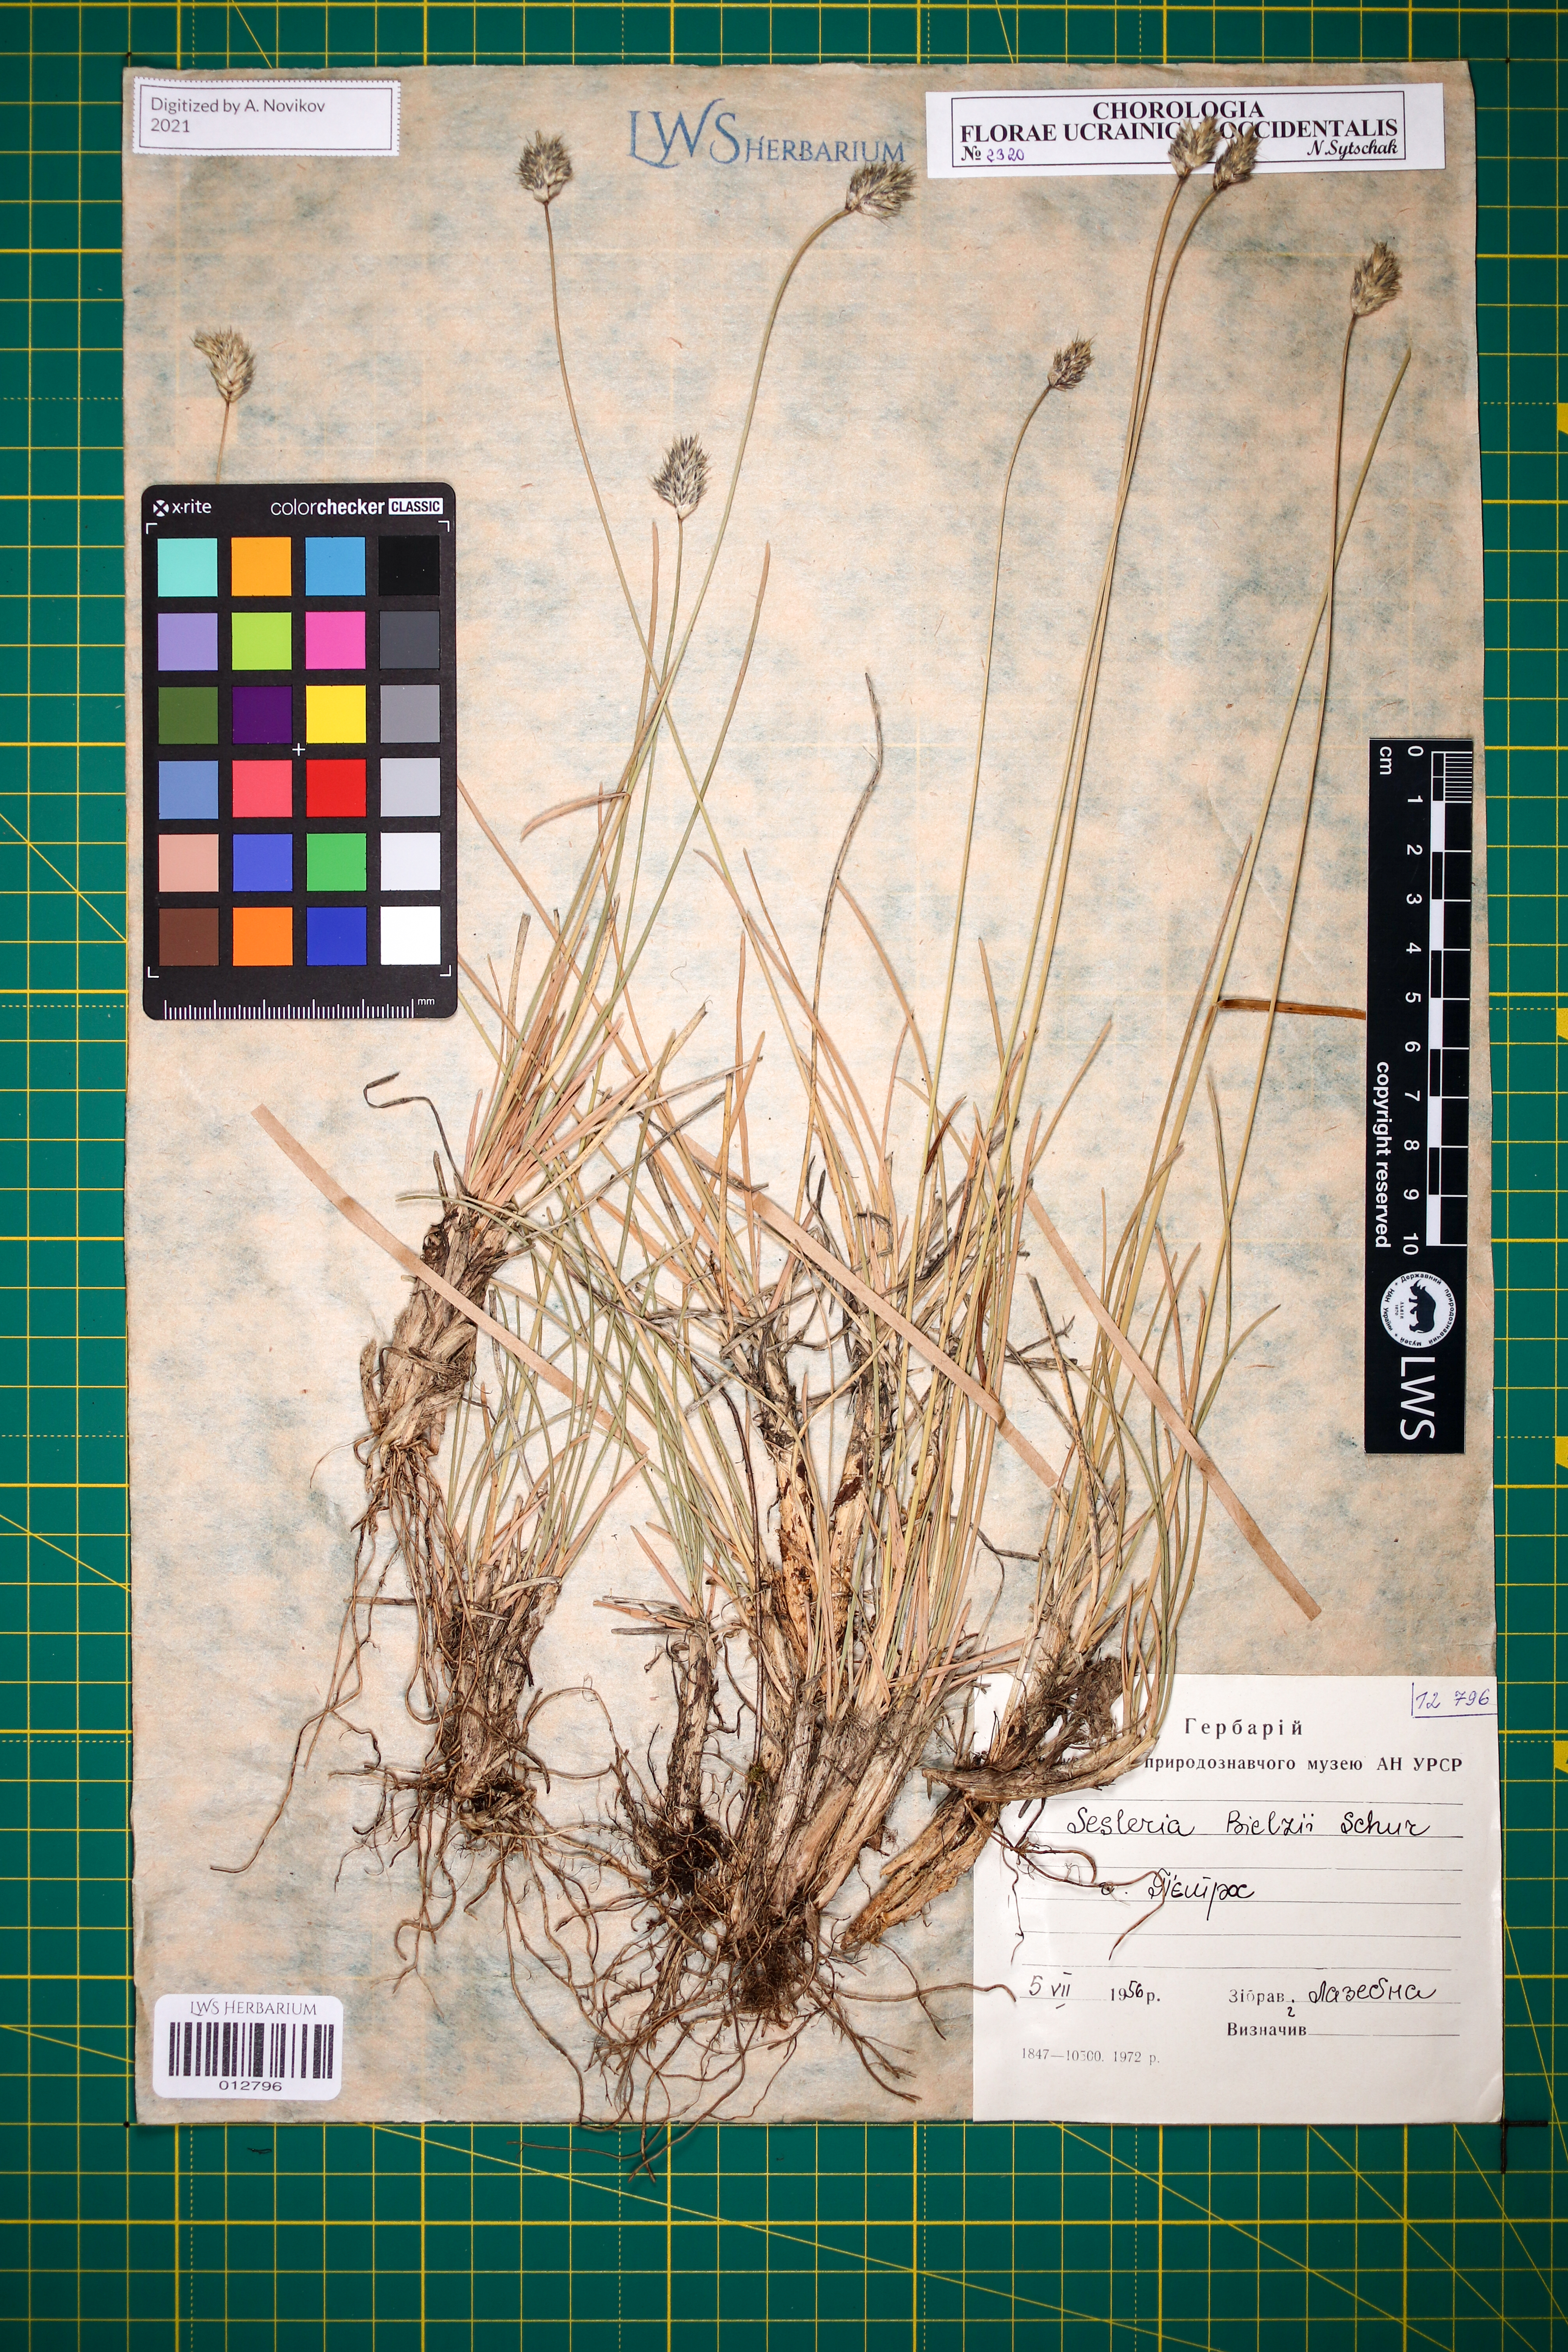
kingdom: Plantae
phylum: Tracheophyta
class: Liliopsida
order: Poales
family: Poaceae
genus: Sesleria
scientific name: Sesleria bielzii
